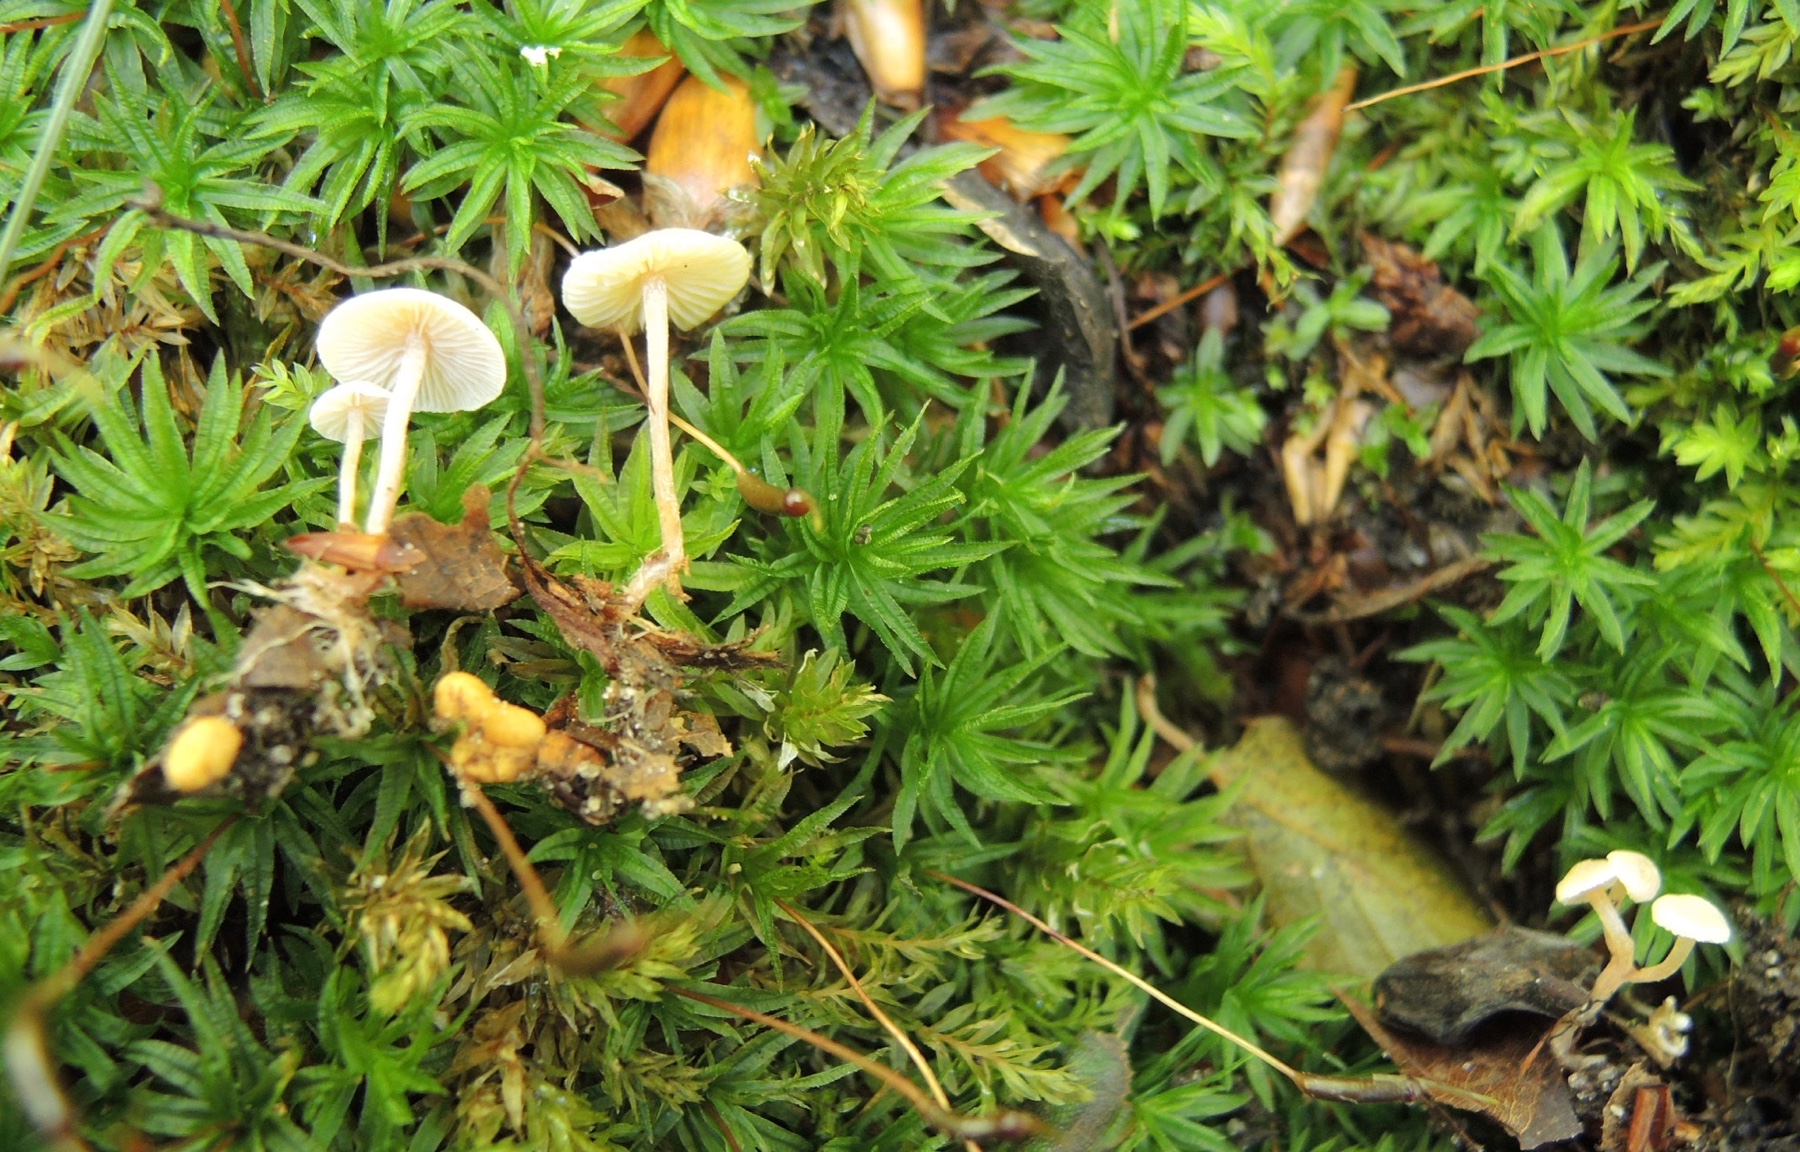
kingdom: Fungi
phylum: Basidiomycota
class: Agaricomycetes
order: Agaricales
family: Tricholomataceae
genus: Collybia
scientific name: Collybia cookei
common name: gulknoldet lighat
